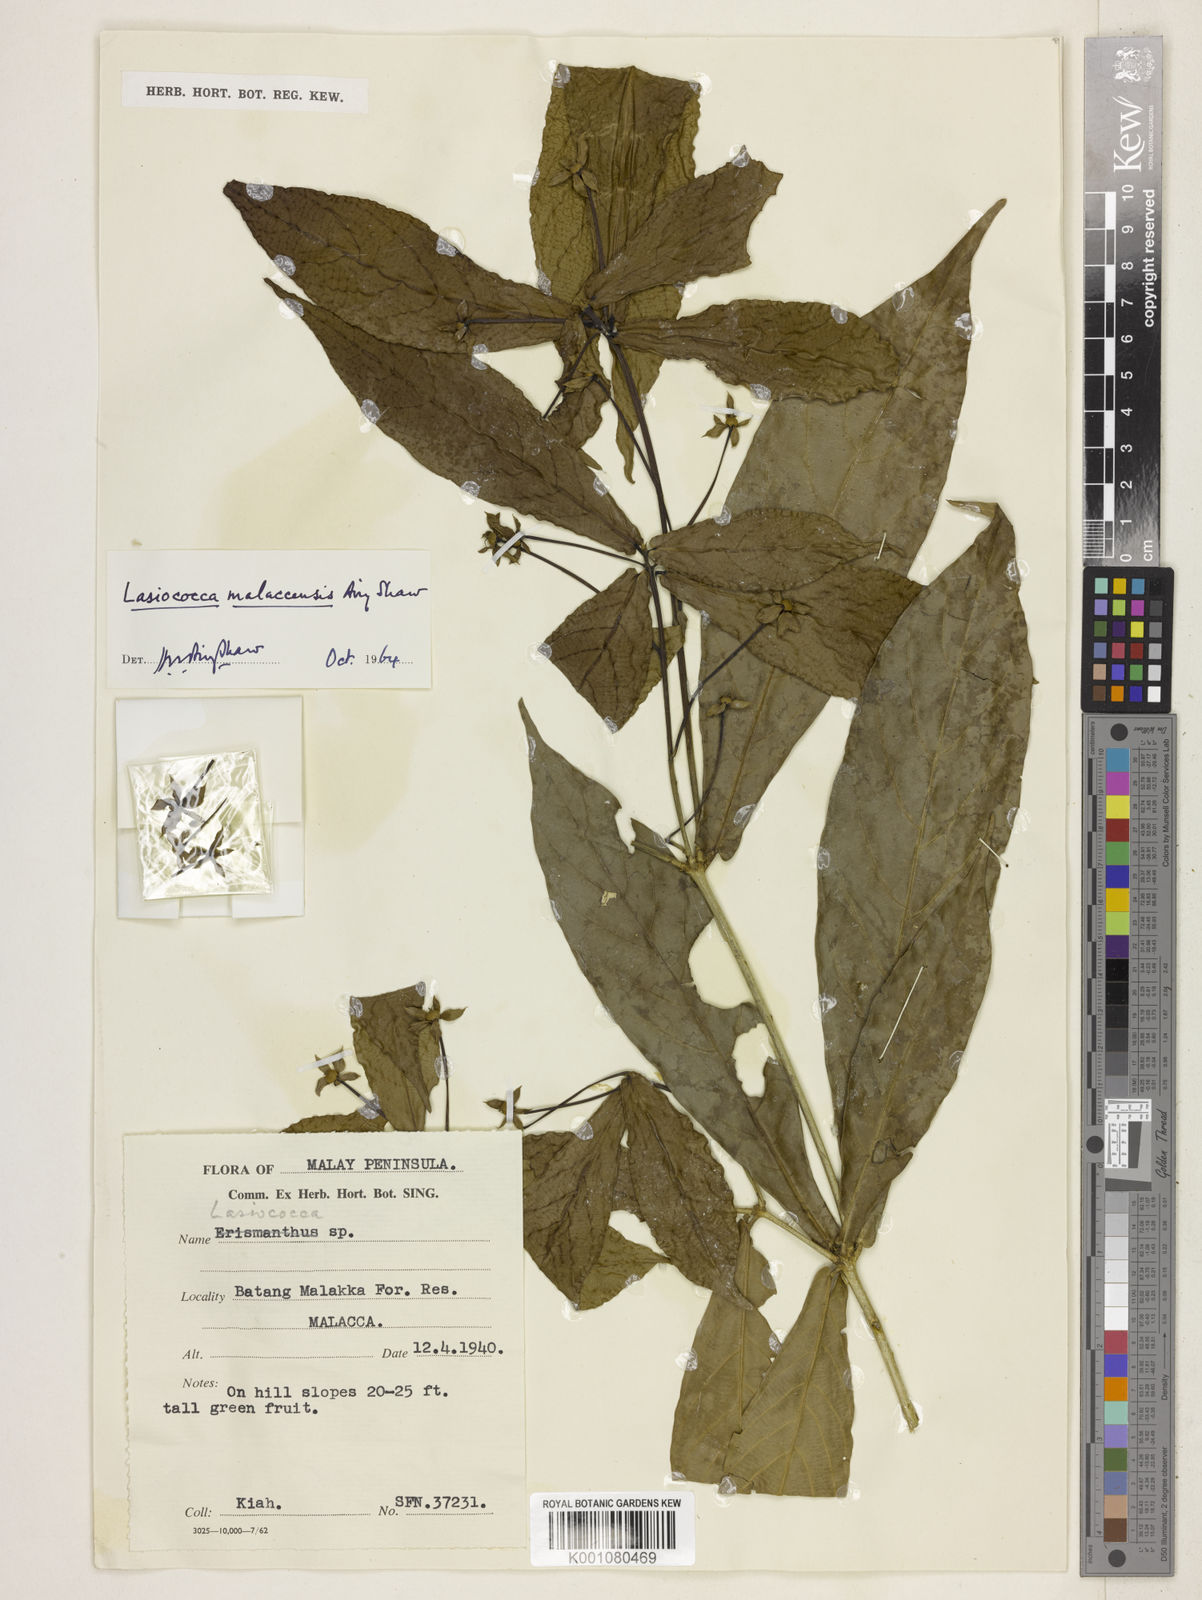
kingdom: Plantae
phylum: Tracheophyta
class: Magnoliopsida
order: Malpighiales
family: Euphorbiaceae
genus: Lasiococca
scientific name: Lasiococca brevipes
